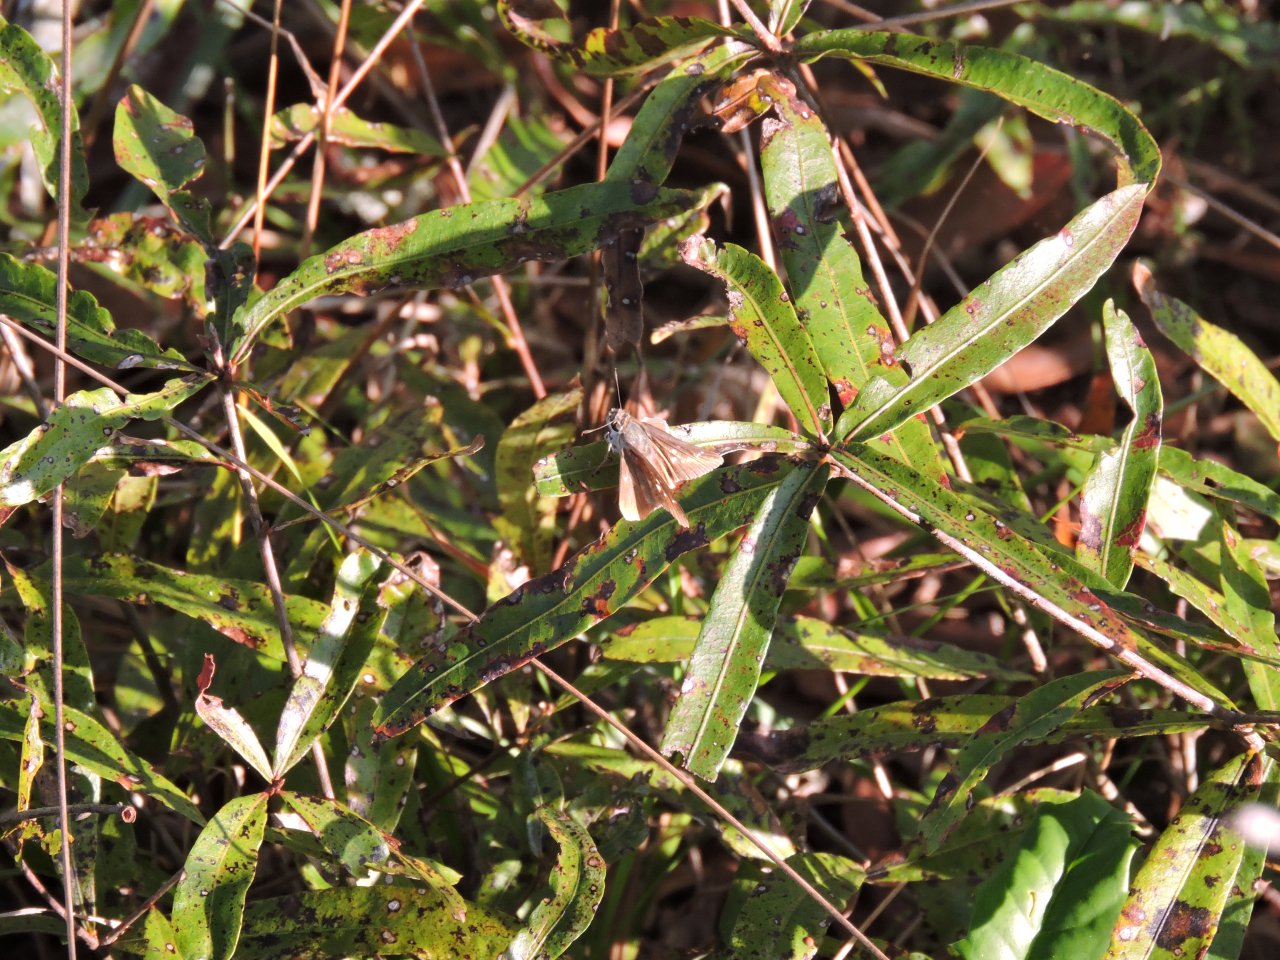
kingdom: Animalia
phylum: Arthropoda
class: Insecta
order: Lepidoptera
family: Hesperiidae
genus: Lerodea
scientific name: Lerodea eufala
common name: Eufala Skipper
